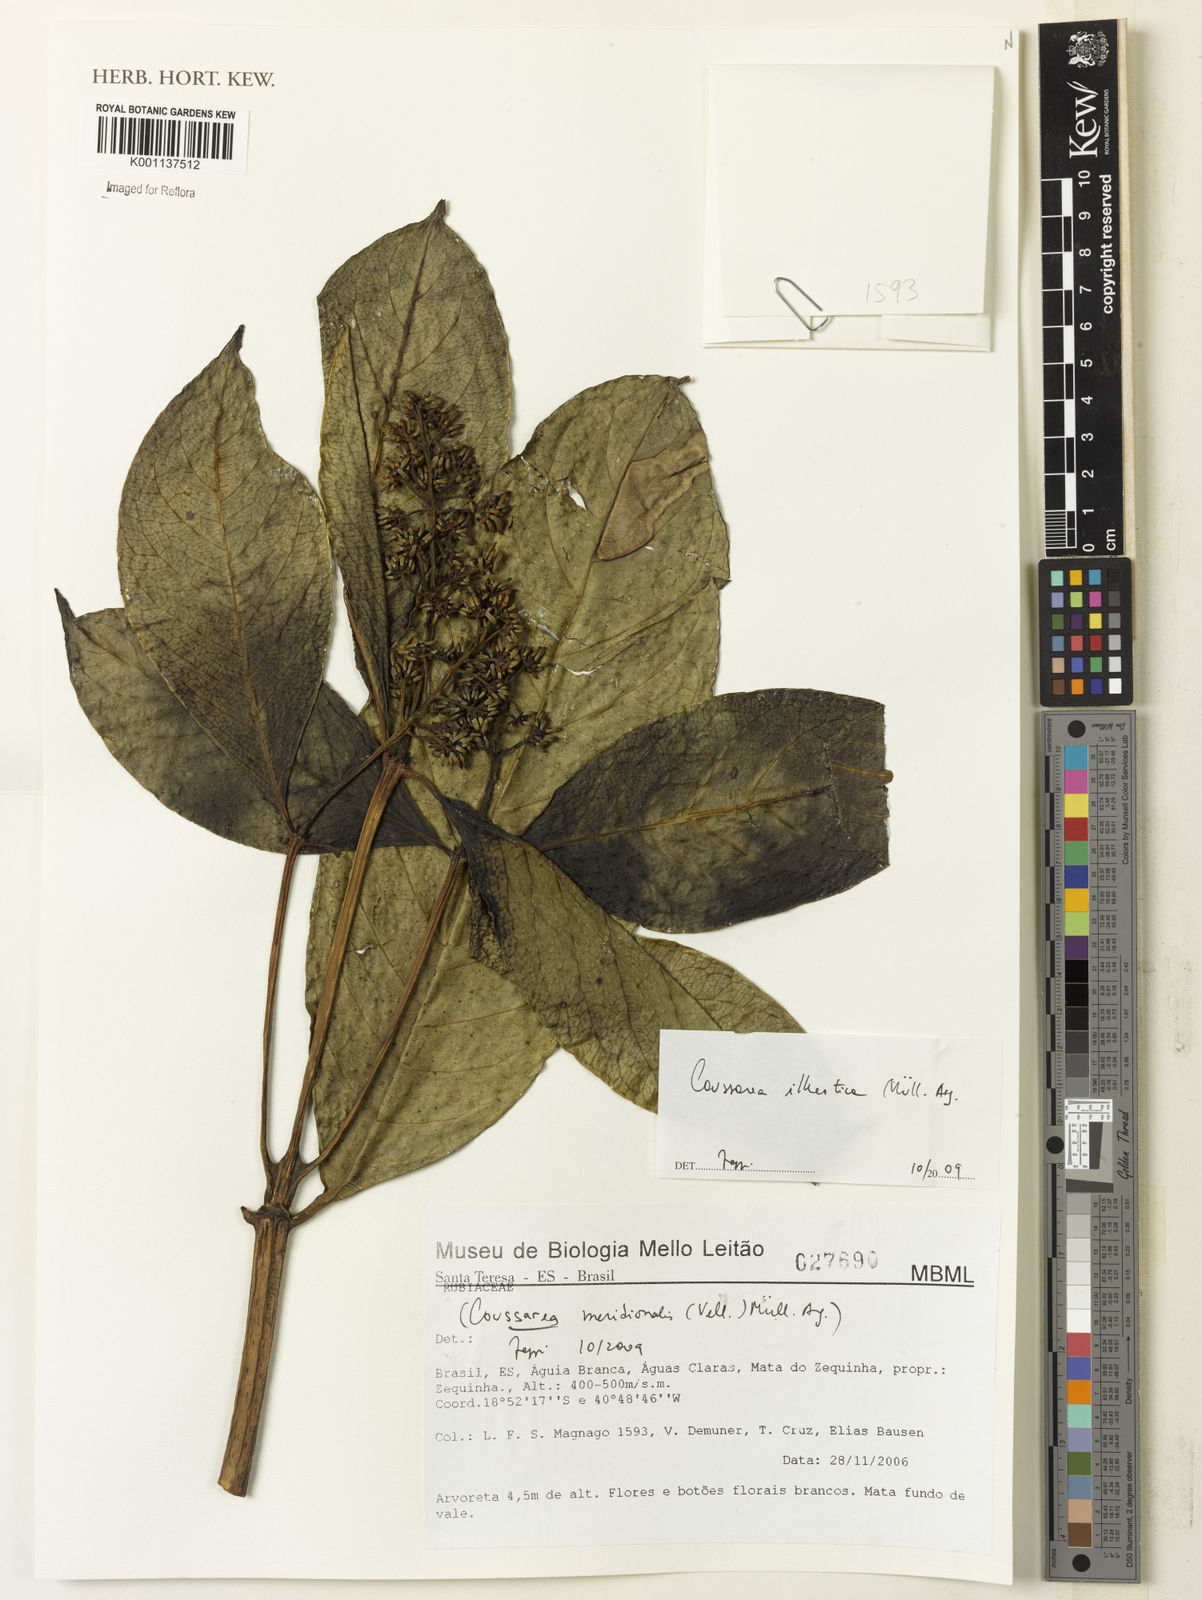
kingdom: Plantae
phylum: Tracheophyta
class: Magnoliopsida
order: Gentianales
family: Rubiaceae
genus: Coussarea
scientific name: Coussarea
